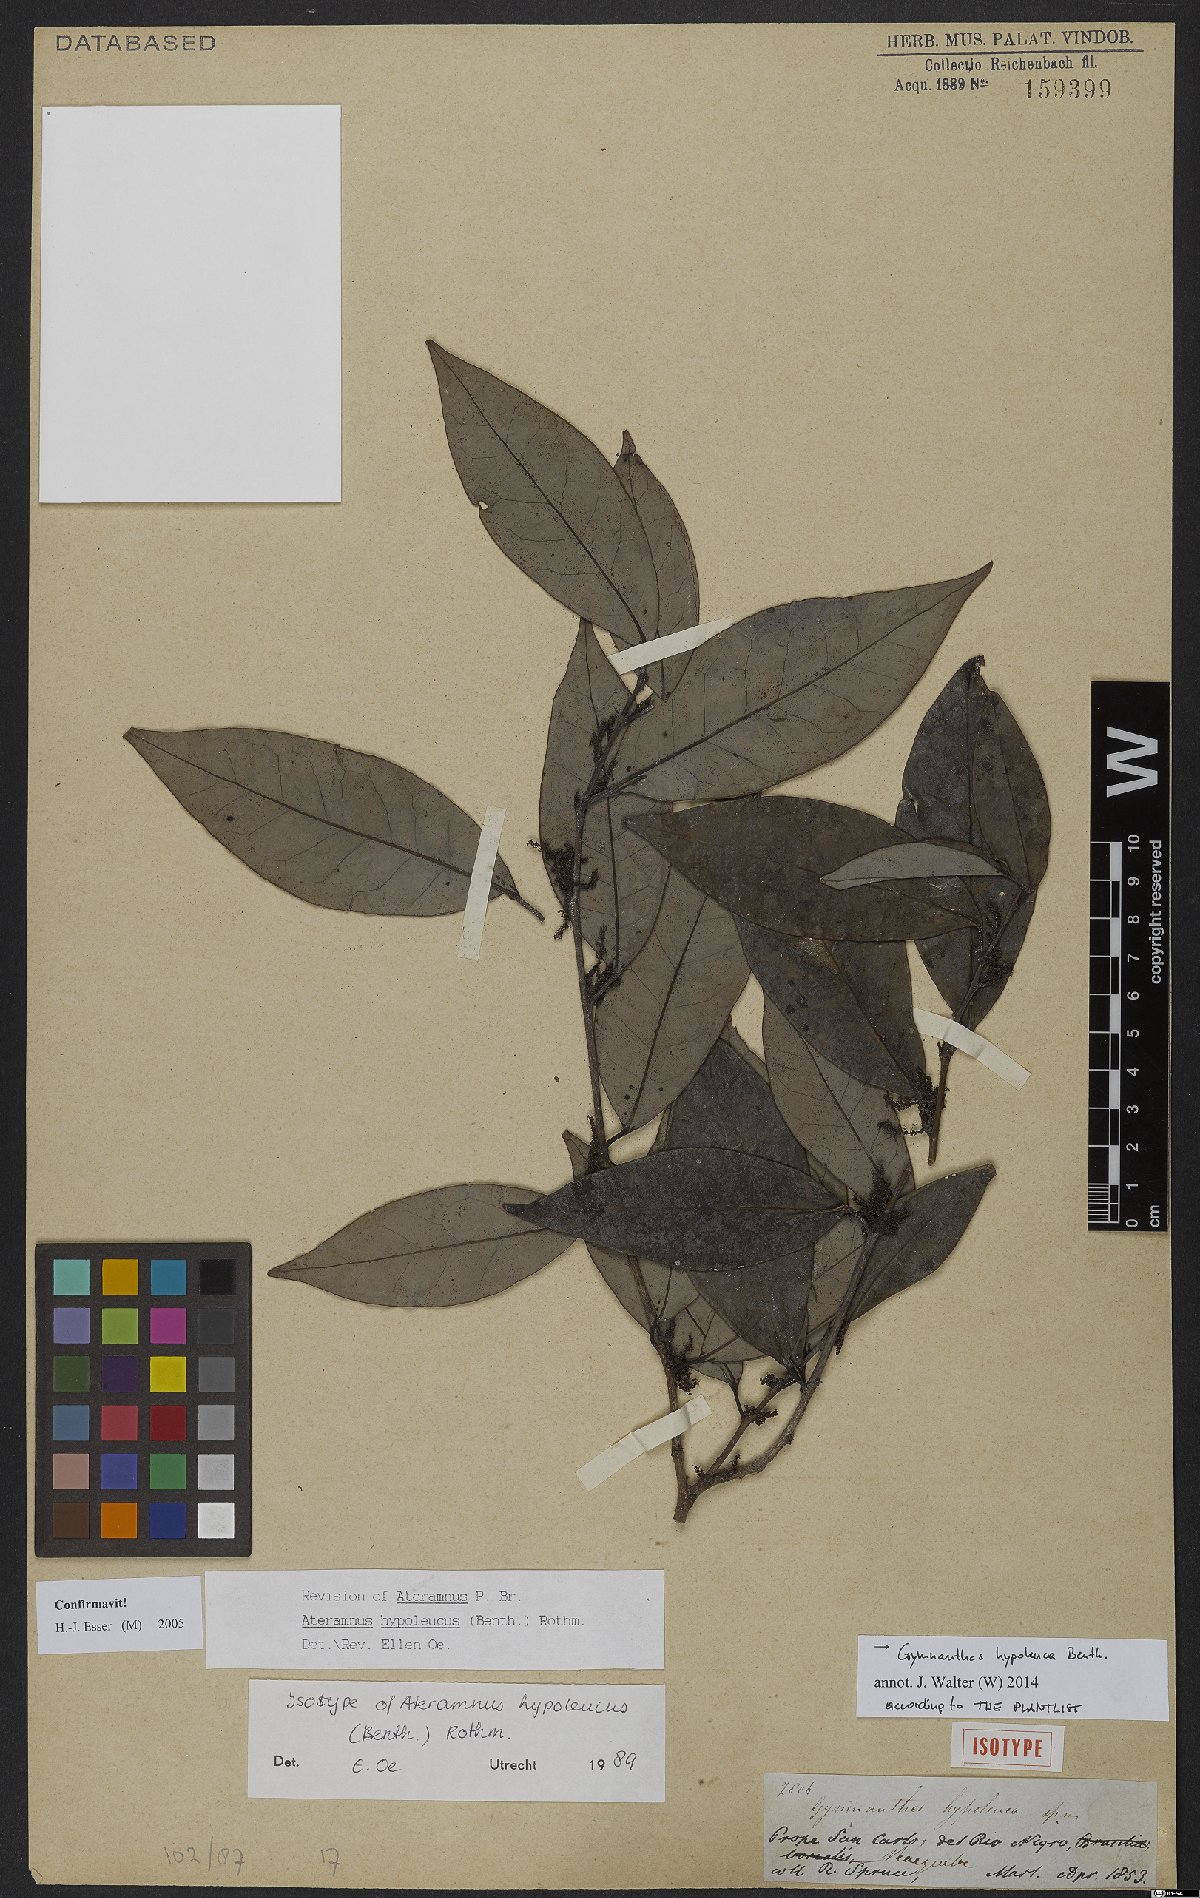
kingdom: Plantae
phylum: Tracheophyta
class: Magnoliopsida
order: Malpighiales
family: Euphorbiaceae
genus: Gymnanthes
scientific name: Gymnanthes hypoleuca
